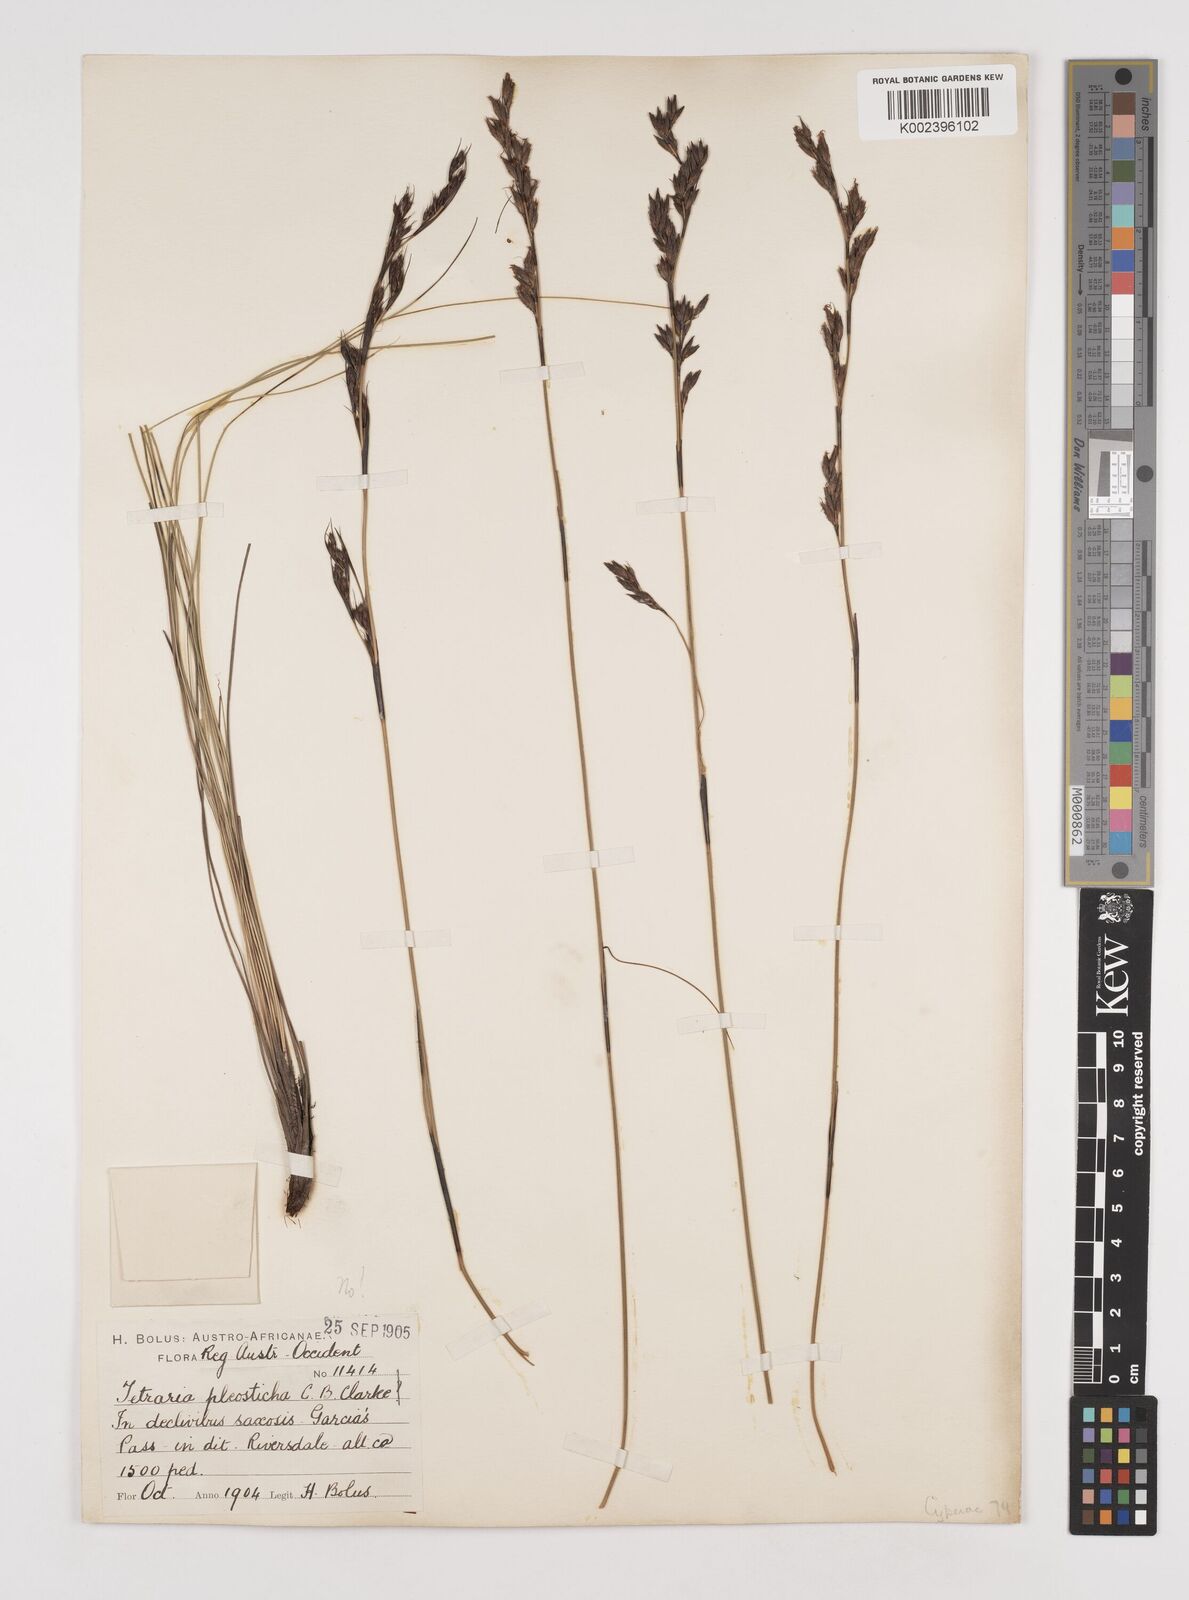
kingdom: Plantae
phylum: Tracheophyta
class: Liliopsida
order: Poales
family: Cyperaceae
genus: Tetraria
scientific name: Tetraria pleosticha
